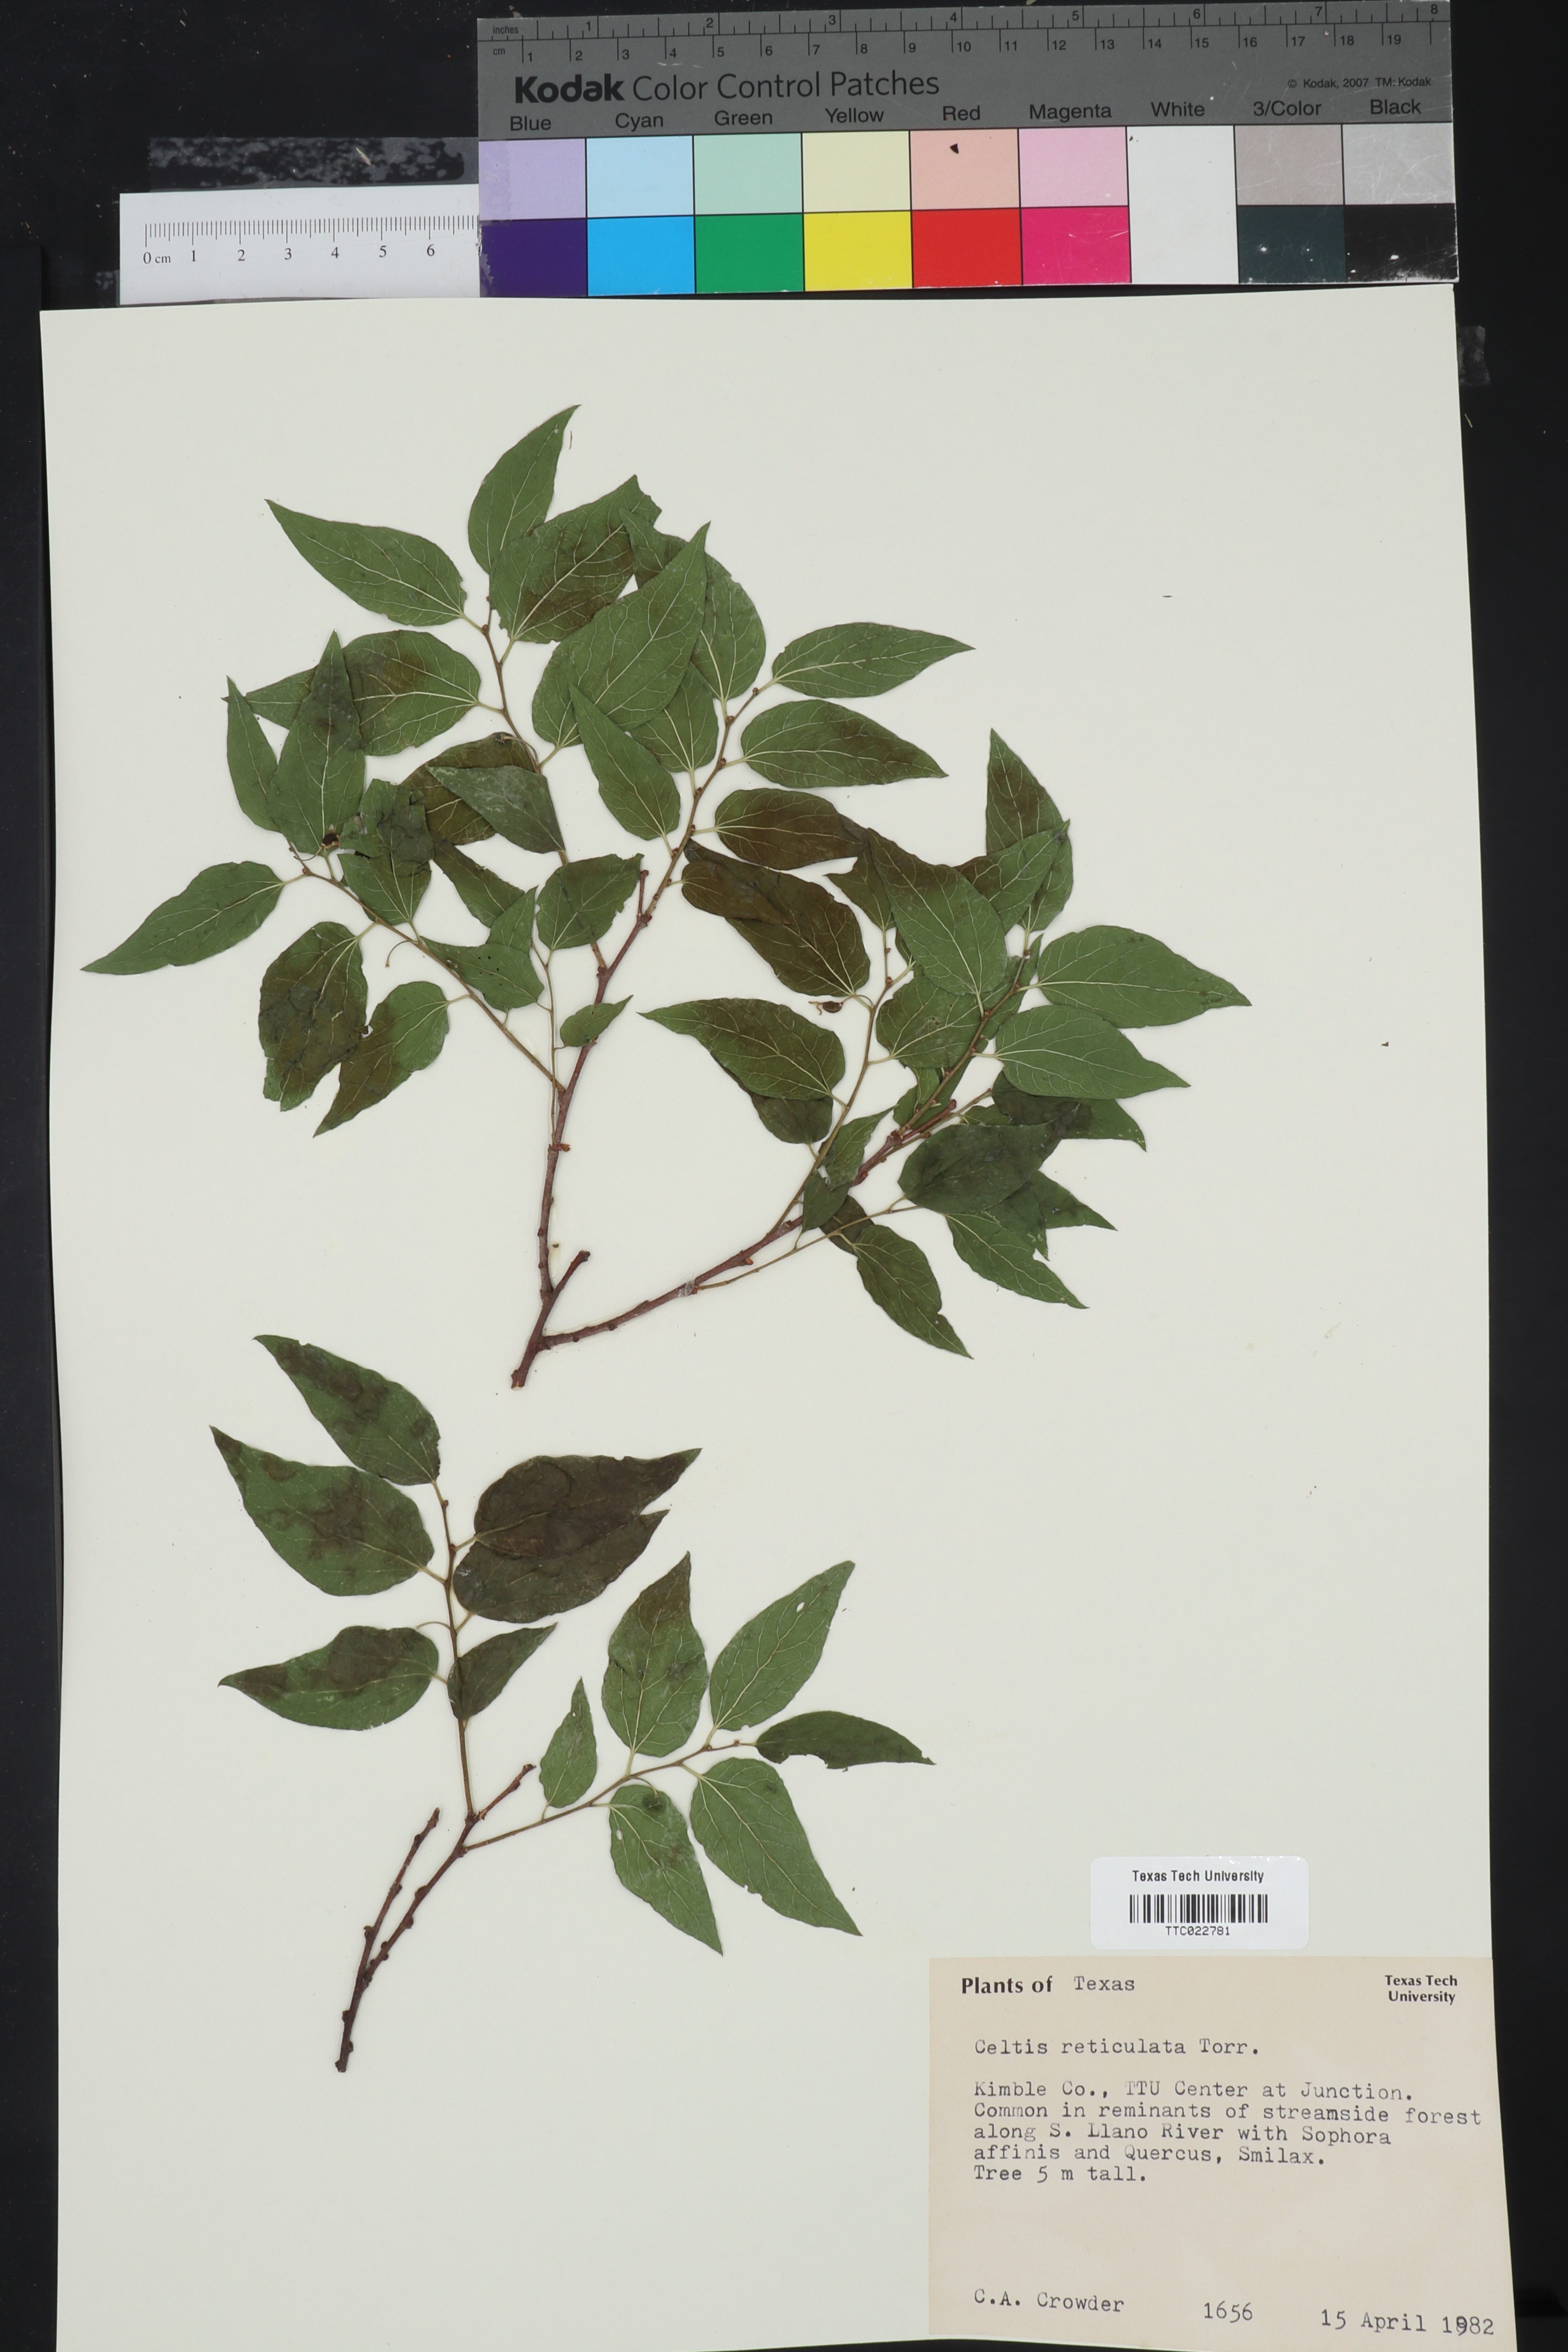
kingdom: Plantae
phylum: Tracheophyta
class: Magnoliopsida
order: Rosales
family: Cannabaceae
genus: Celtis
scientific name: Celtis reticulata
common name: Netleaf hackberry
